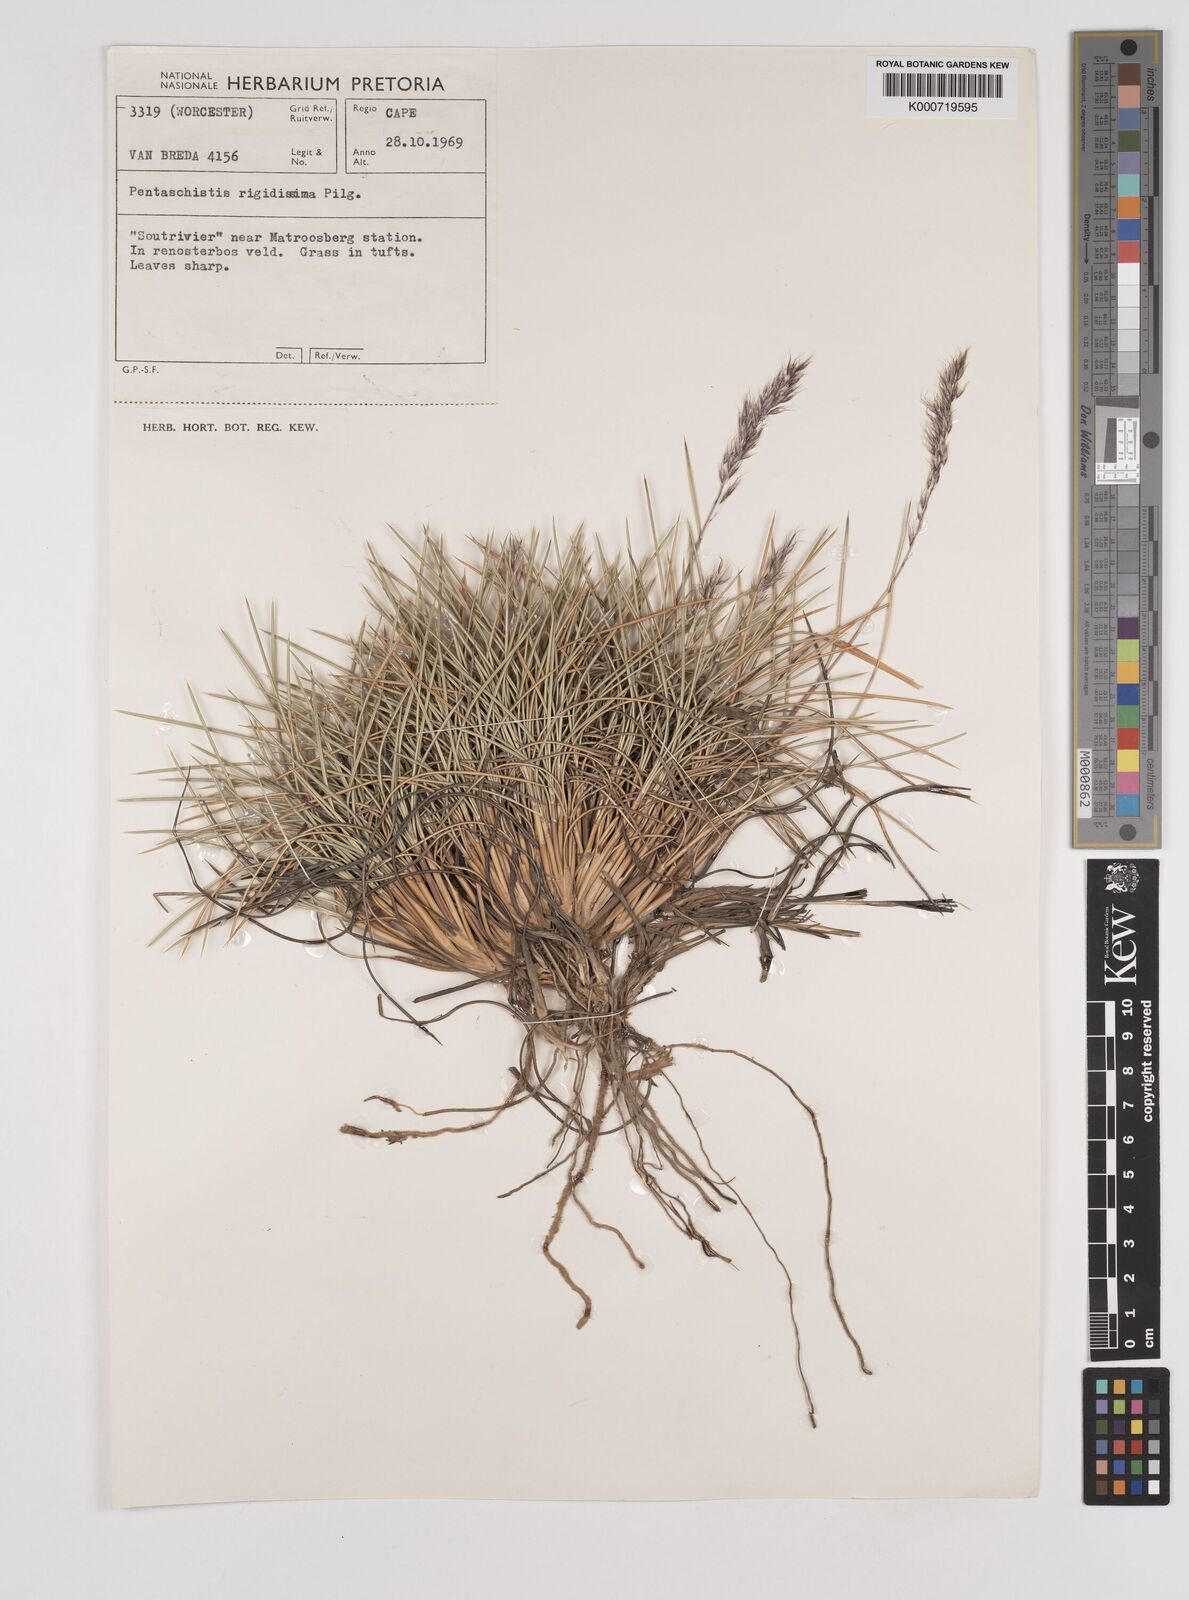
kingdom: Plantae
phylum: Tracheophyta
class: Liliopsida
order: Poales
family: Poaceae
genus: Pentameris
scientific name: Pentameris rigidissima
